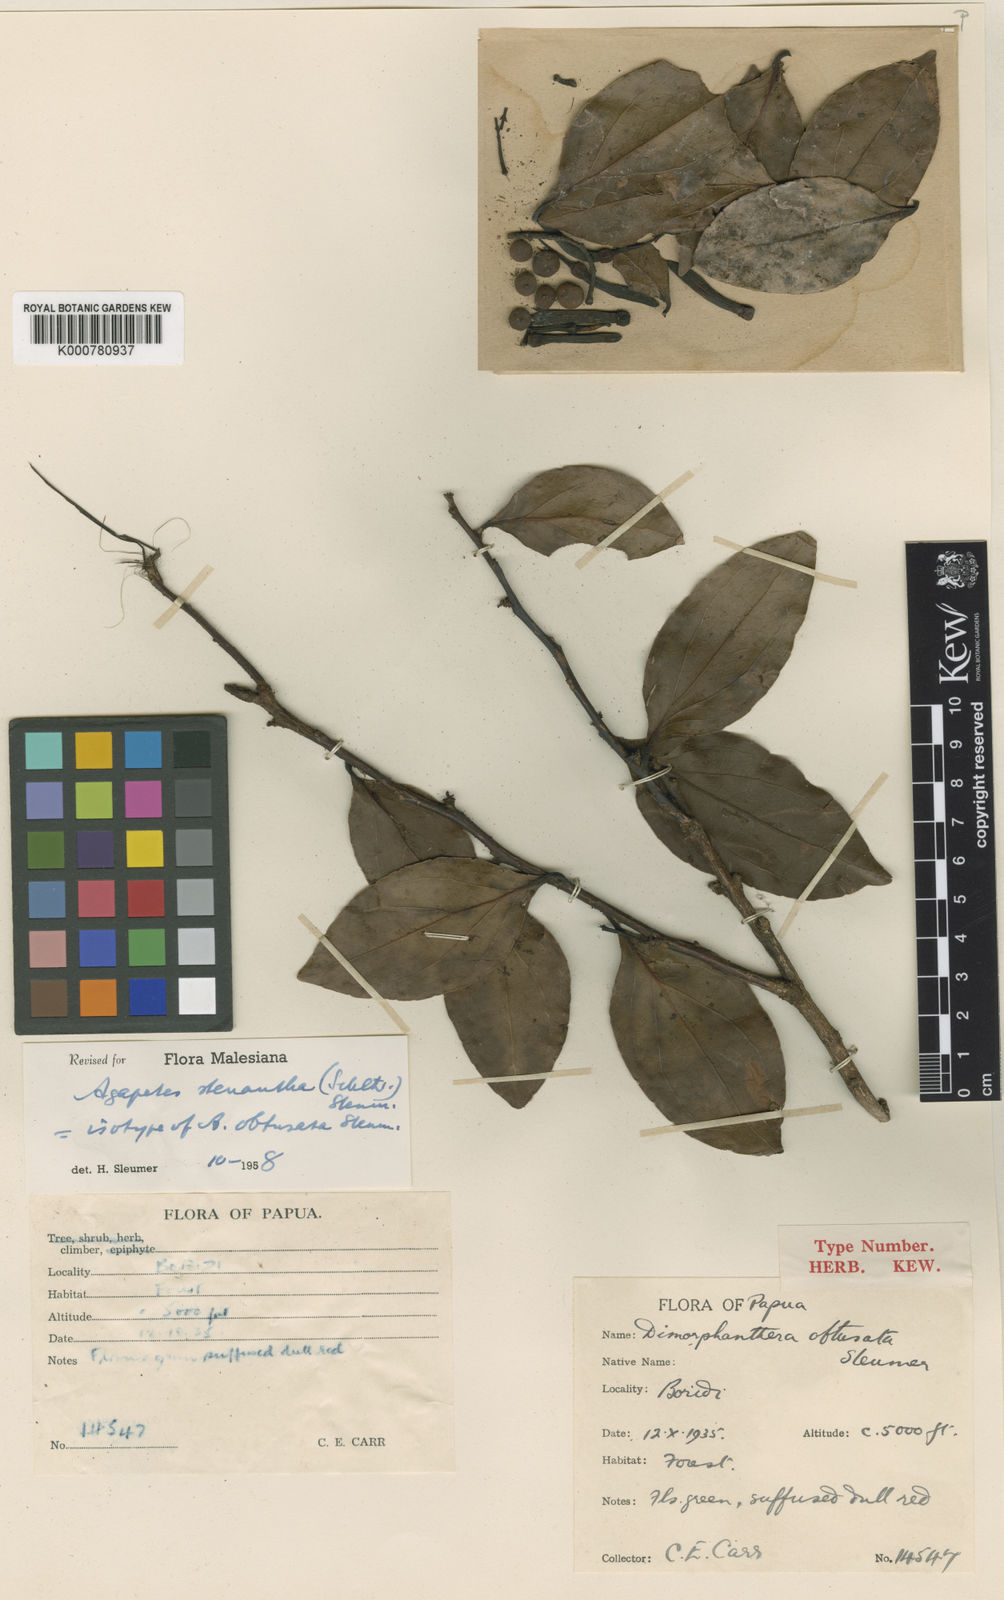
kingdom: Plantae
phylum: Tracheophyta
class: Magnoliopsida
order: Ericales
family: Ericaceae
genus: Paphia
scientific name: Paphia stenantha
